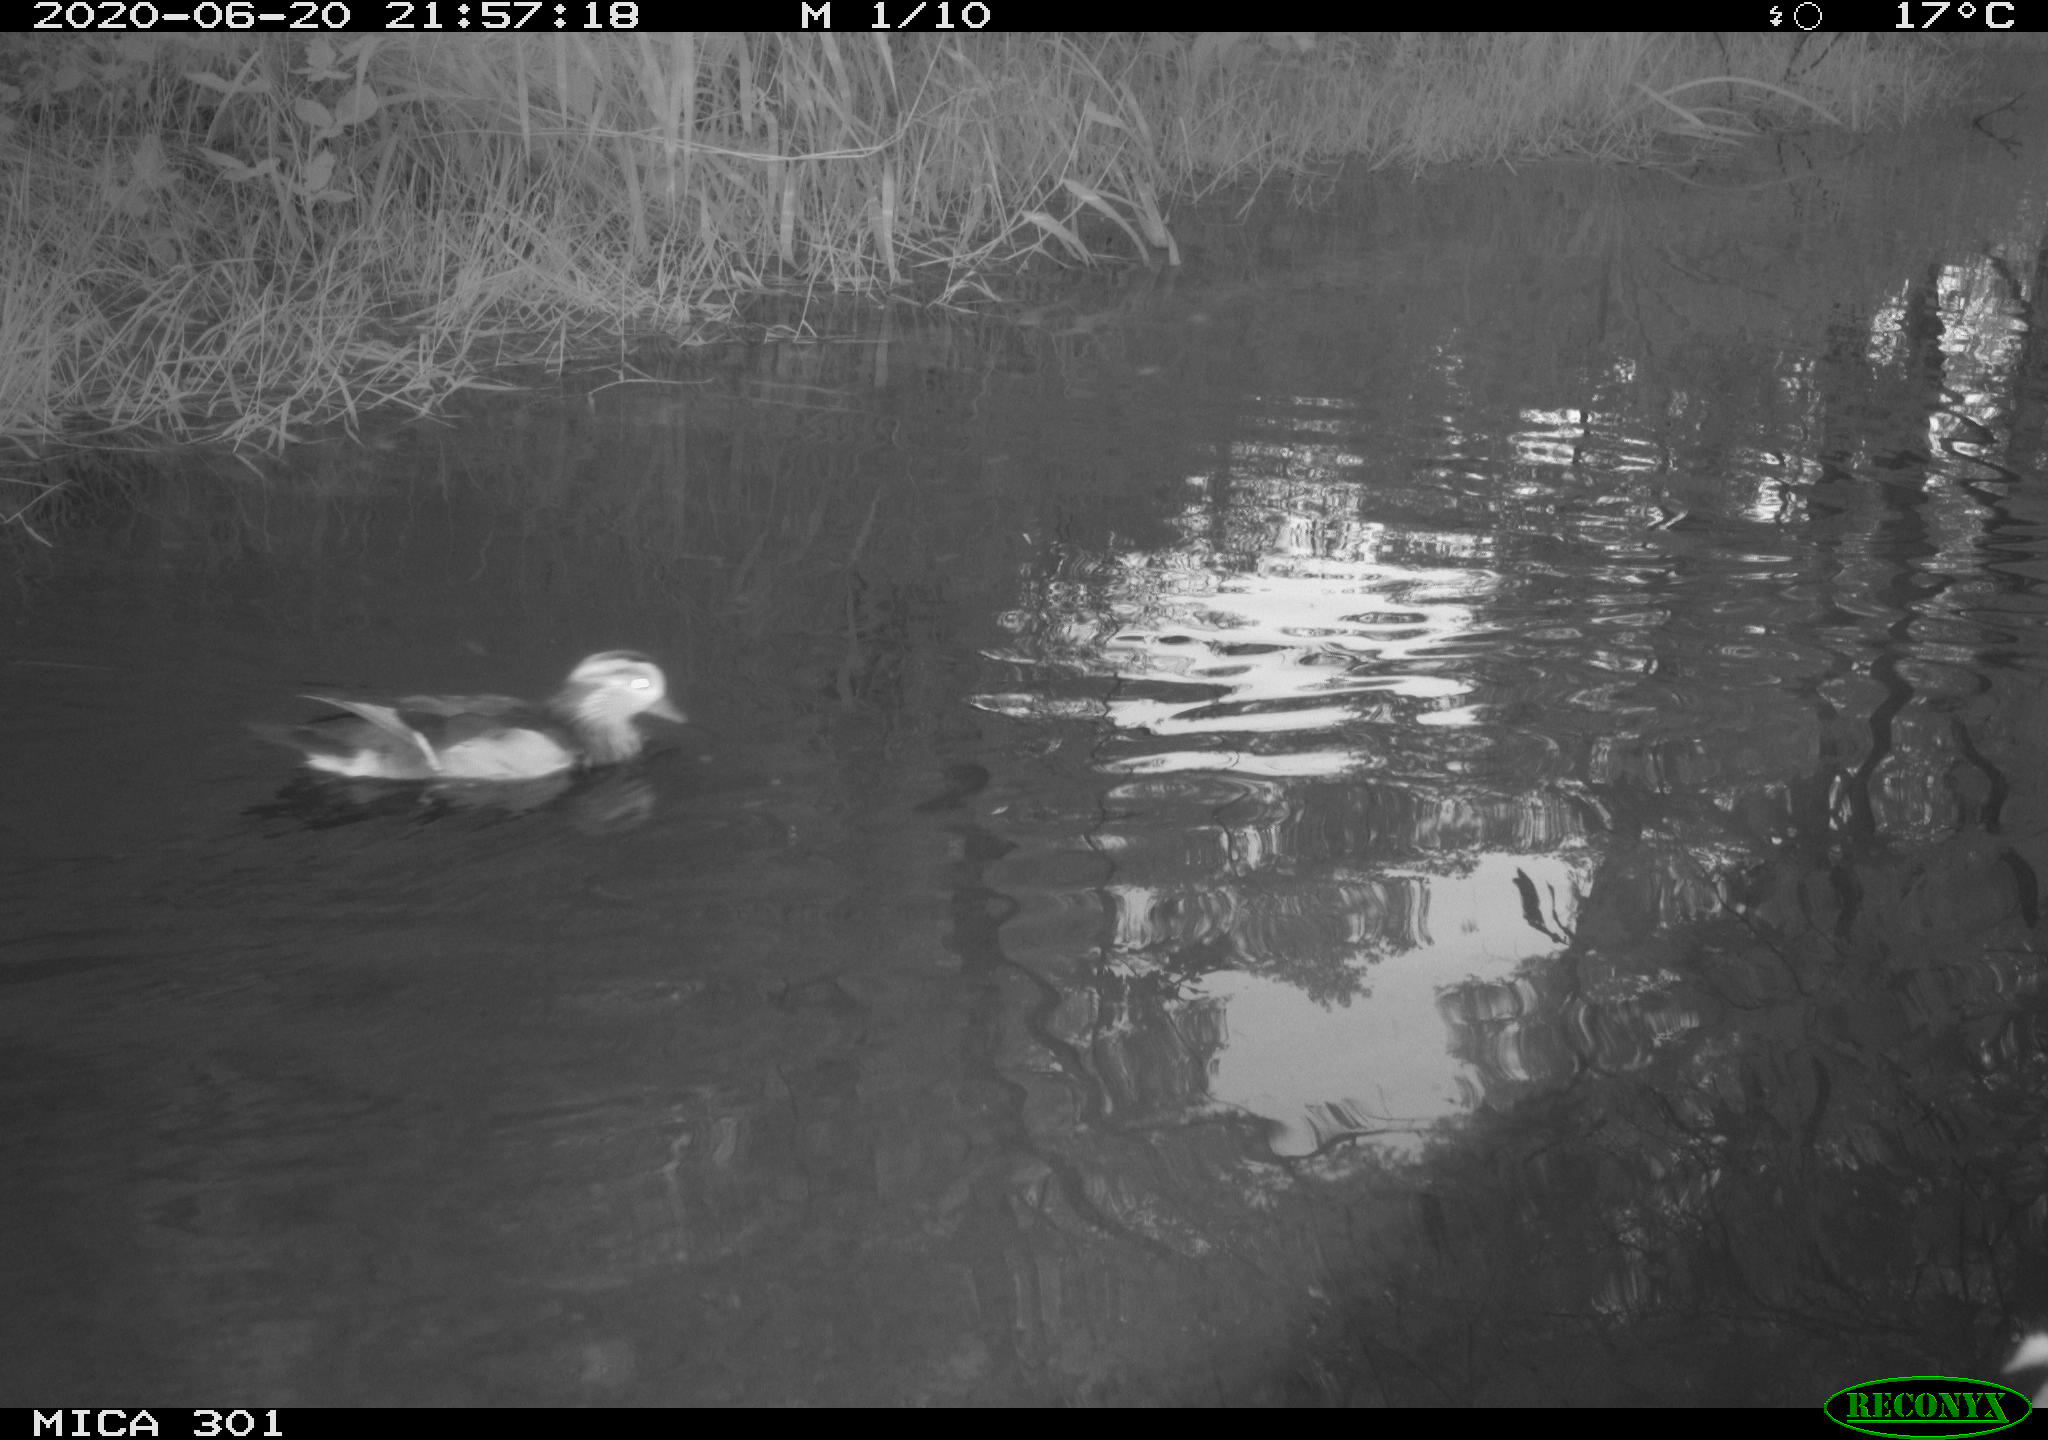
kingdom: Animalia
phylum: Chordata
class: Aves
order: Anseriformes
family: Anatidae
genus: Aix
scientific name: Aix galericulata
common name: Mandarin duck
